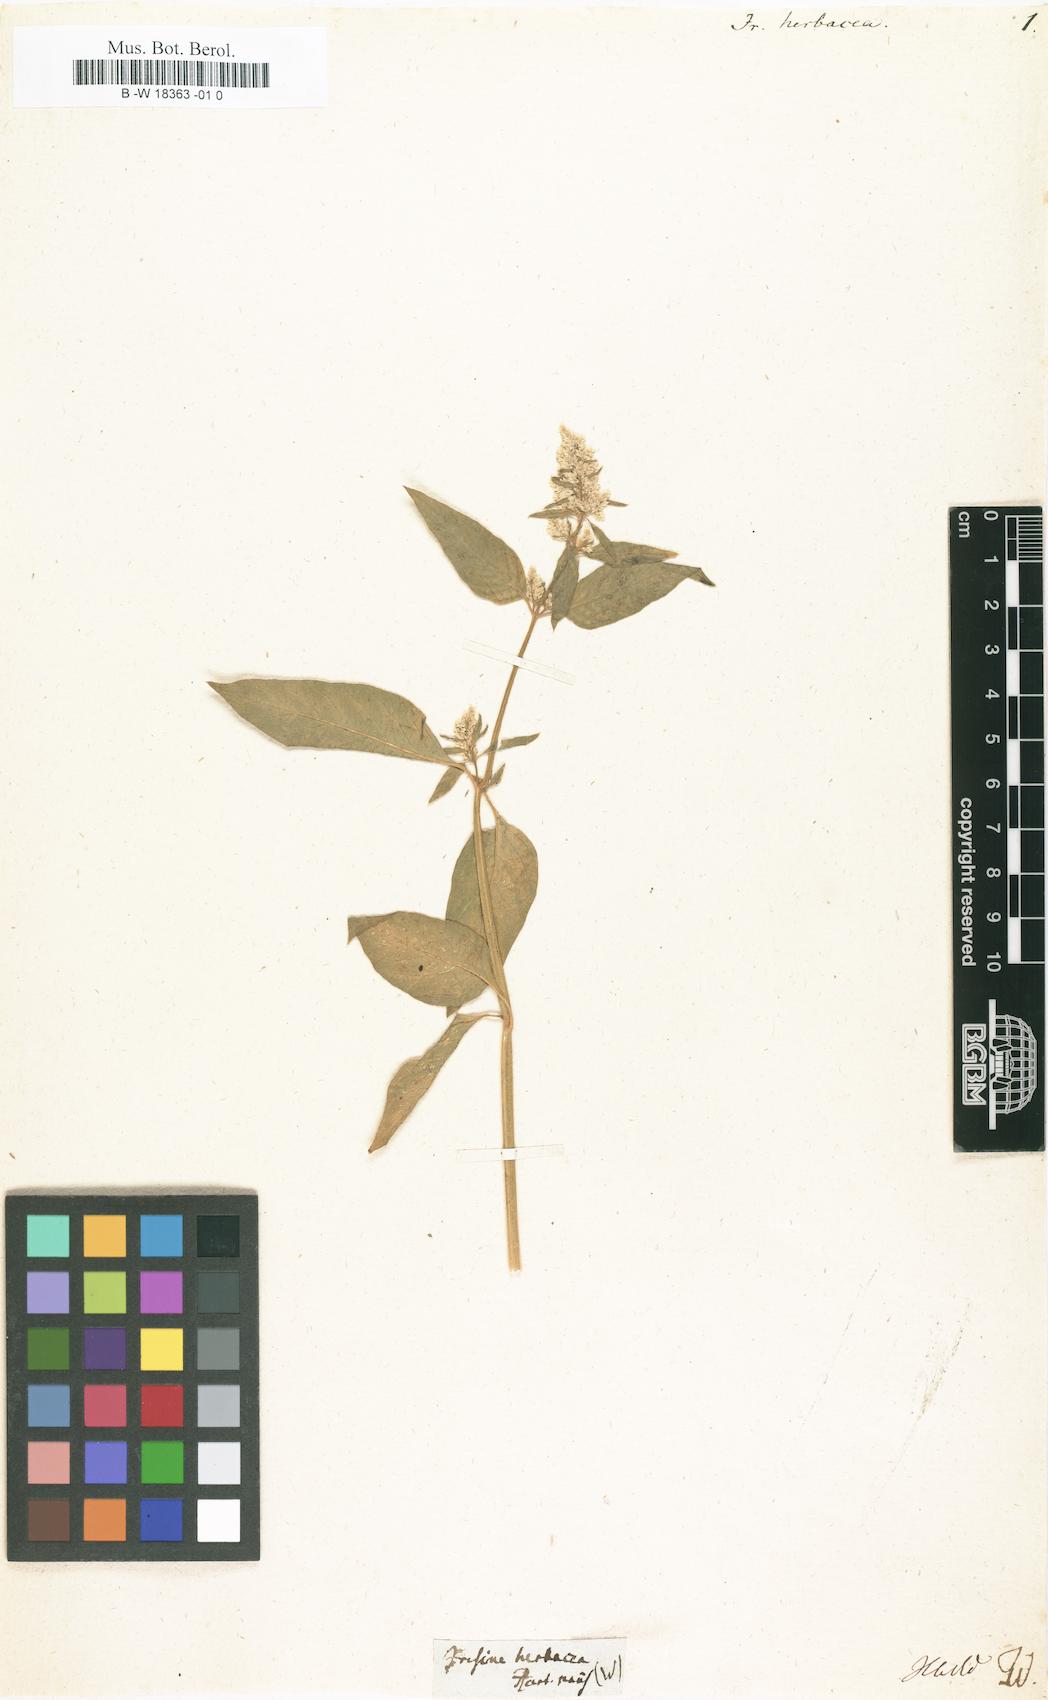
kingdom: Plantae
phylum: Tracheophyta
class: Magnoliopsida
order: Caryophyllales
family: Amaranthaceae
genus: Iresine
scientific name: Iresine diffusa
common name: Juba's-bush
